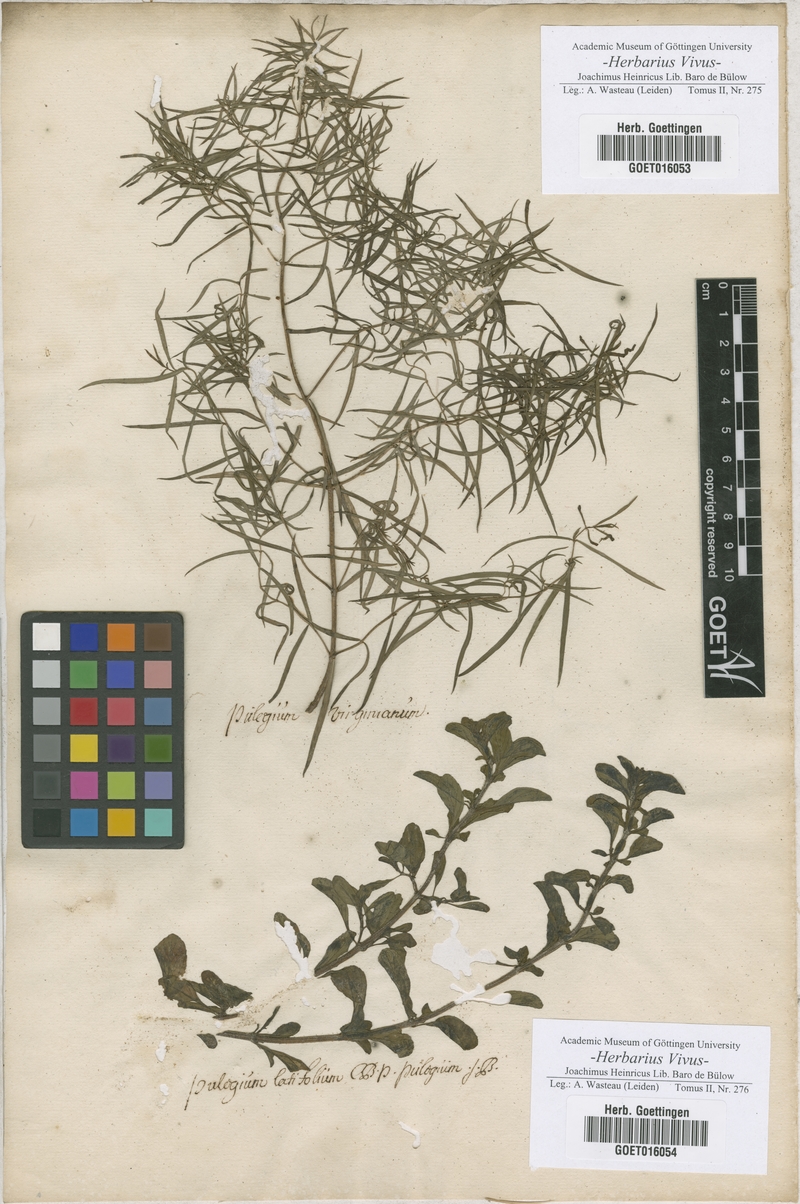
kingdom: Plantae
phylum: Tracheophyta
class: Magnoliopsida
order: Lamiales
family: Lamiaceae
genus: Mentha
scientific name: Mentha
